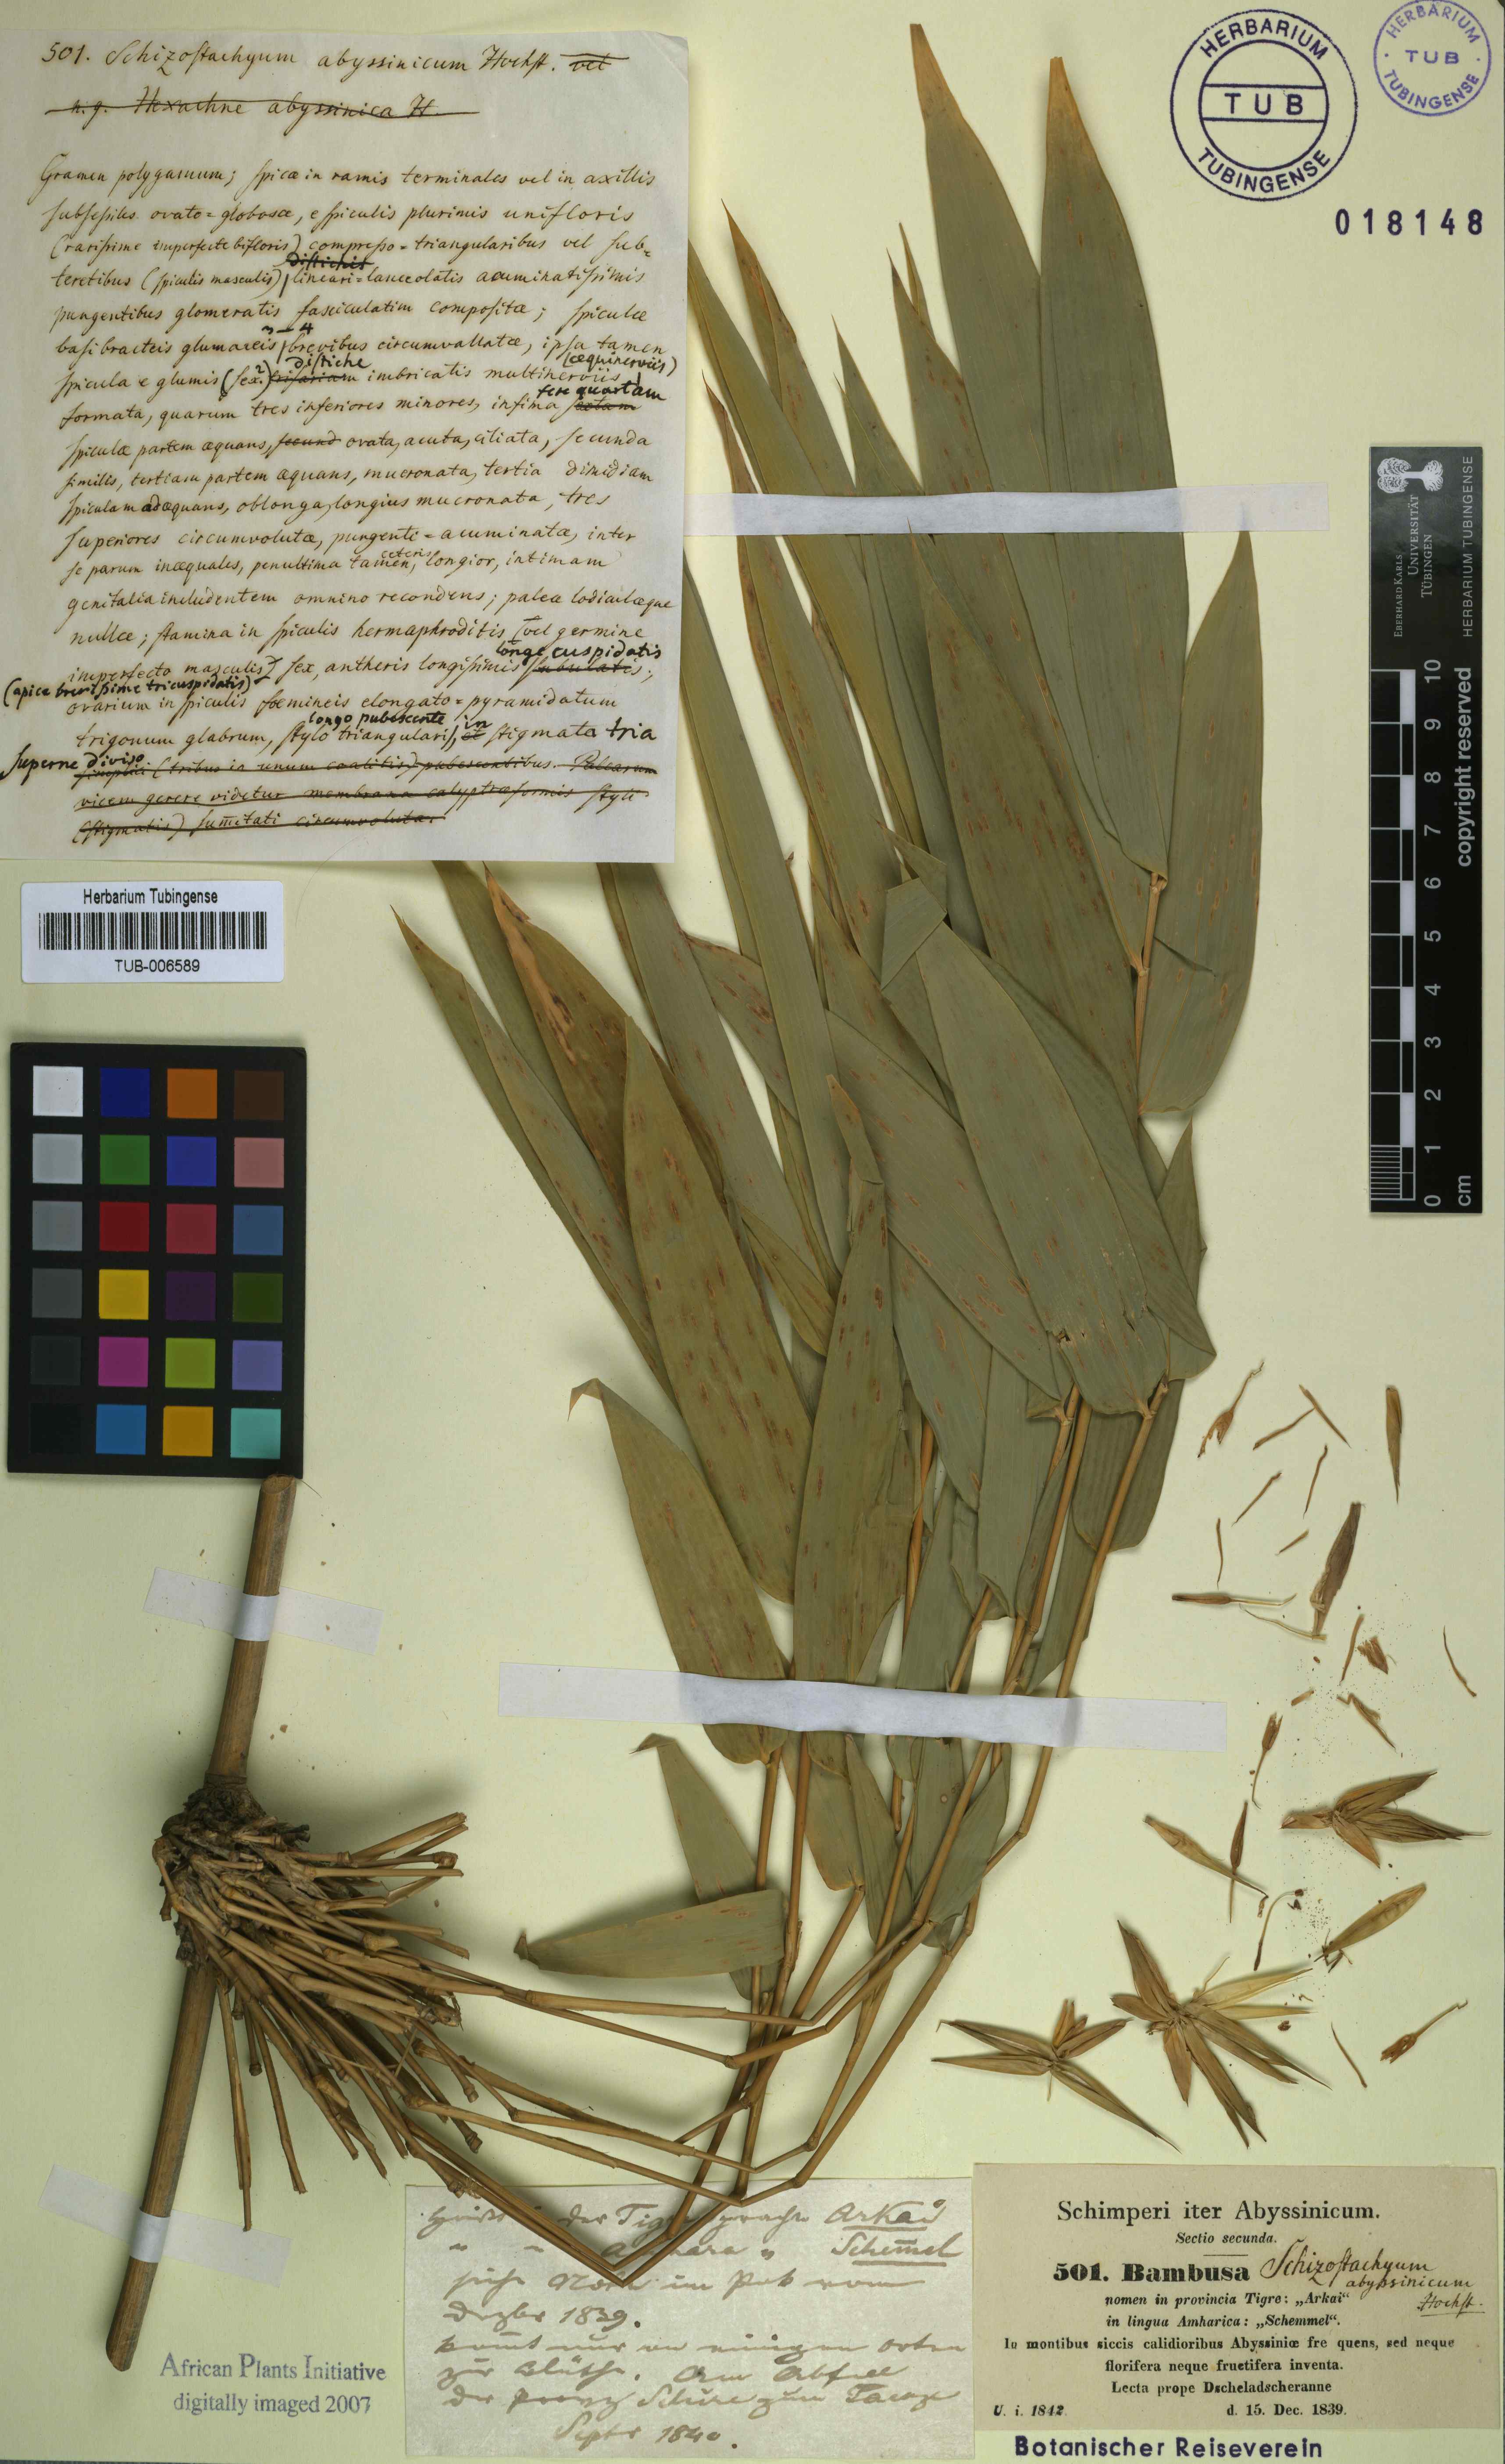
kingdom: Plantae
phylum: Tracheophyta
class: Liliopsida
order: Poales
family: Poaceae
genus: Schizostachyum
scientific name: Schizostachyum
